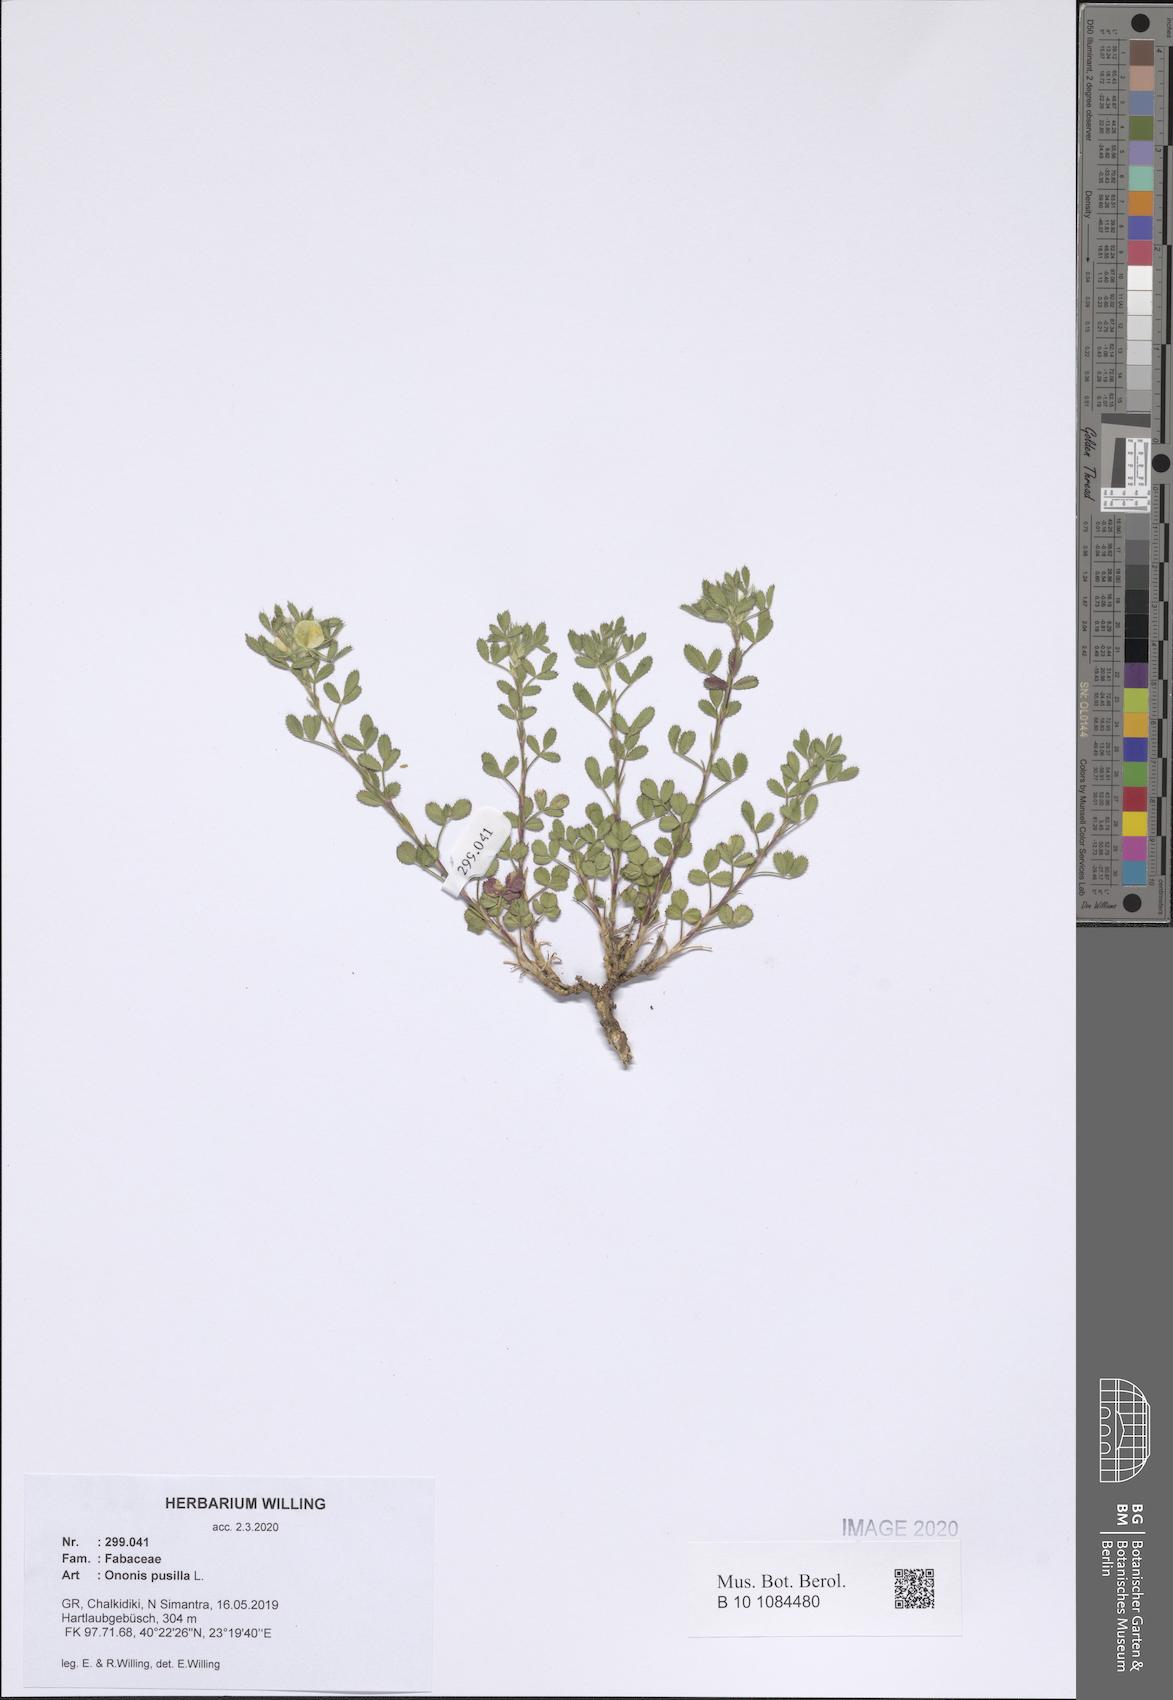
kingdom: Plantae
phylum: Tracheophyta
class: Magnoliopsida
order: Fabales
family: Fabaceae
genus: Ononis
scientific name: Ononis pusilla
